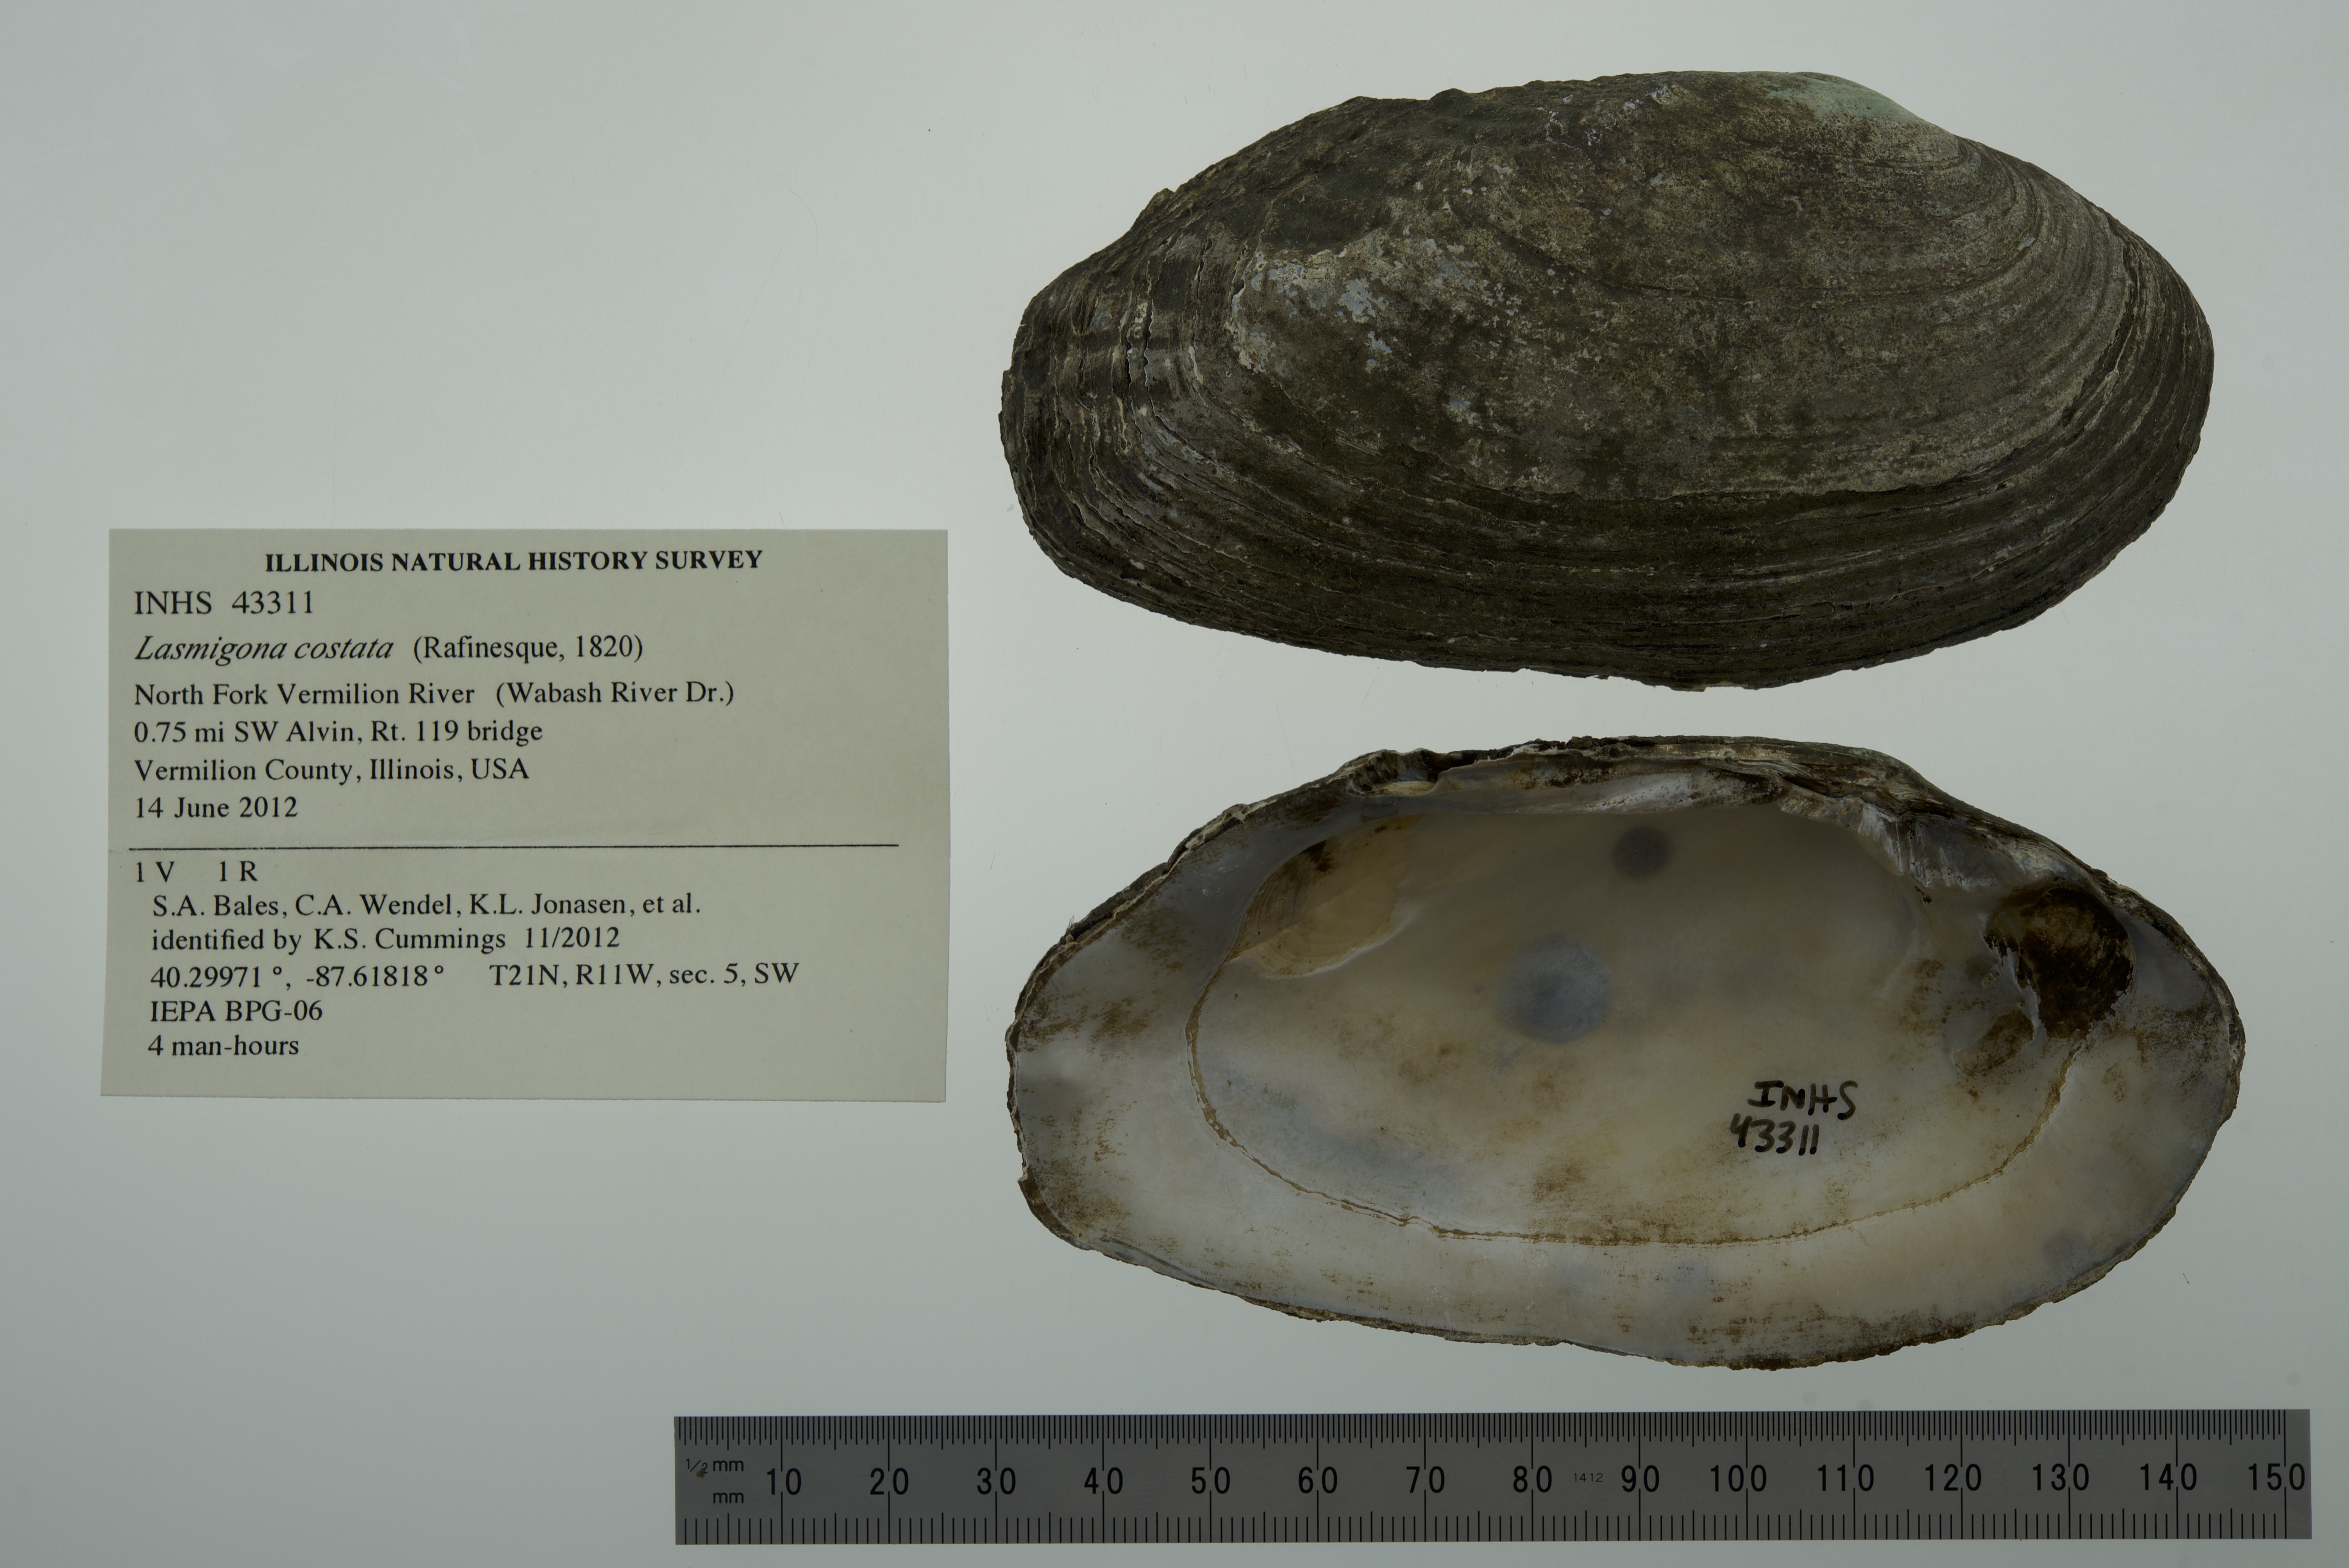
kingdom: Animalia
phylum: Mollusca
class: Bivalvia
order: Unionida
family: Unionidae
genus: Lasmigona
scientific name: Lasmigona costata
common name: Flutedshell
